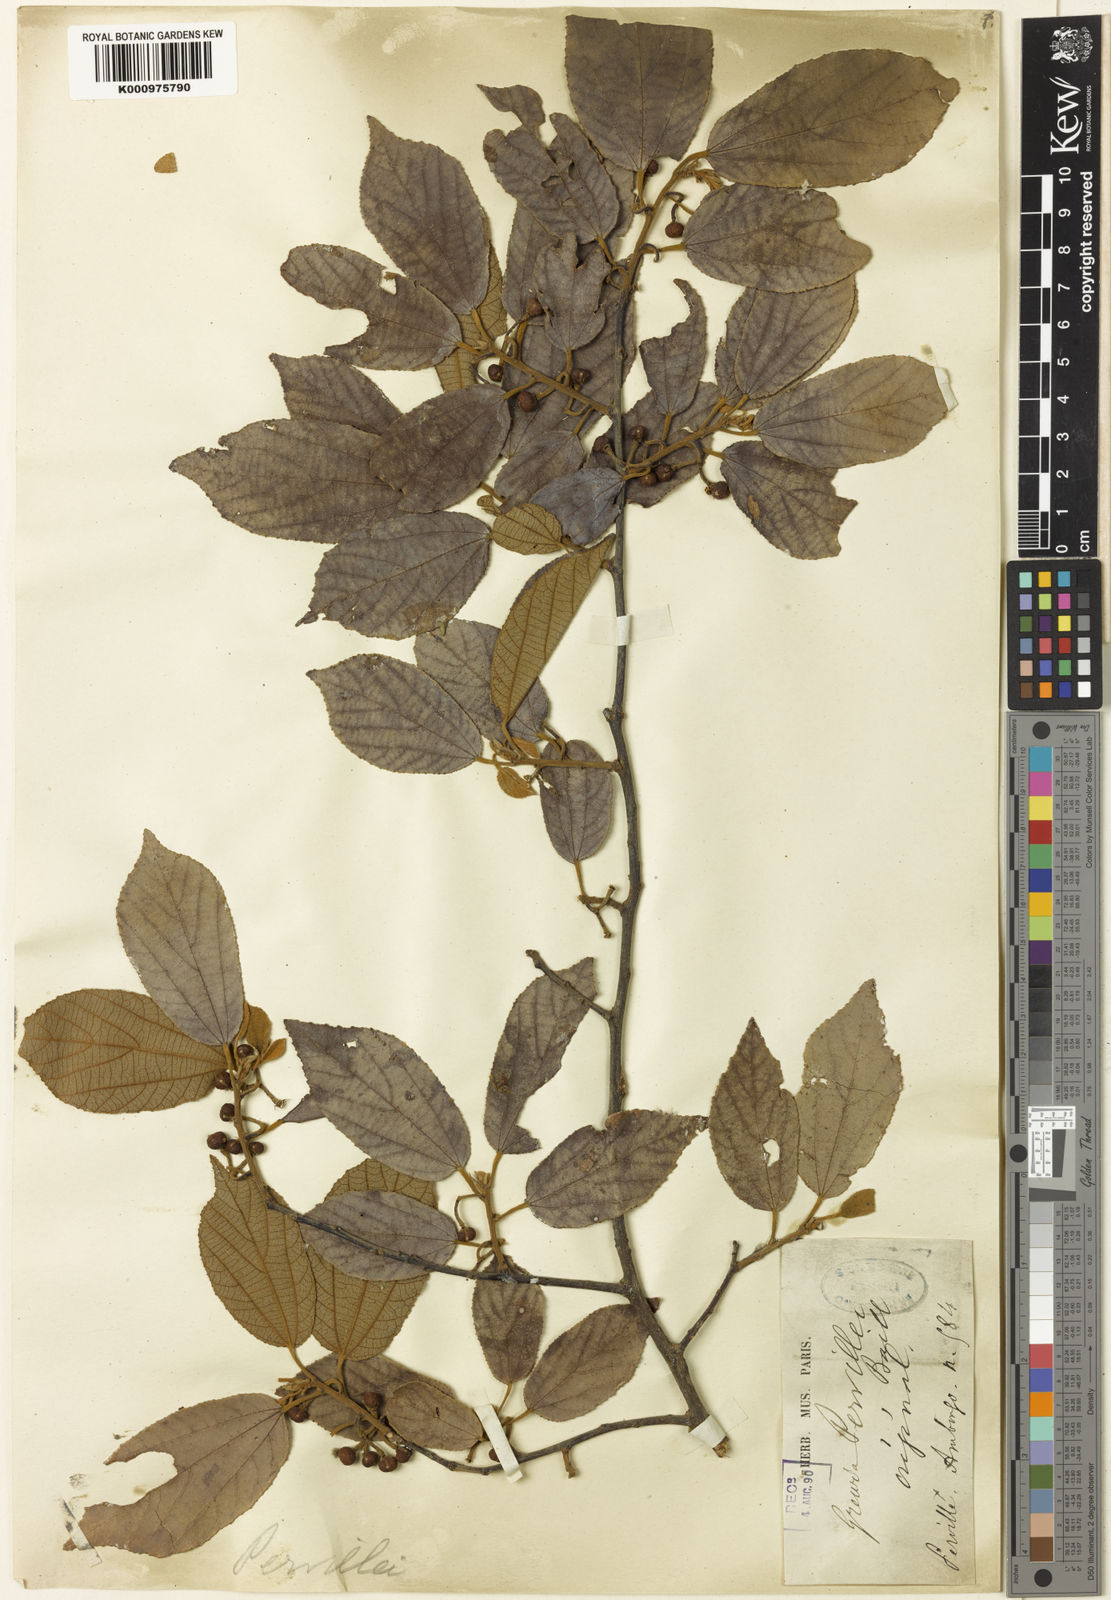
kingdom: Plantae
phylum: Tracheophyta
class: Magnoliopsida
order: Malvales
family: Malvaceae
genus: Grewia
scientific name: Grewia pervillei
